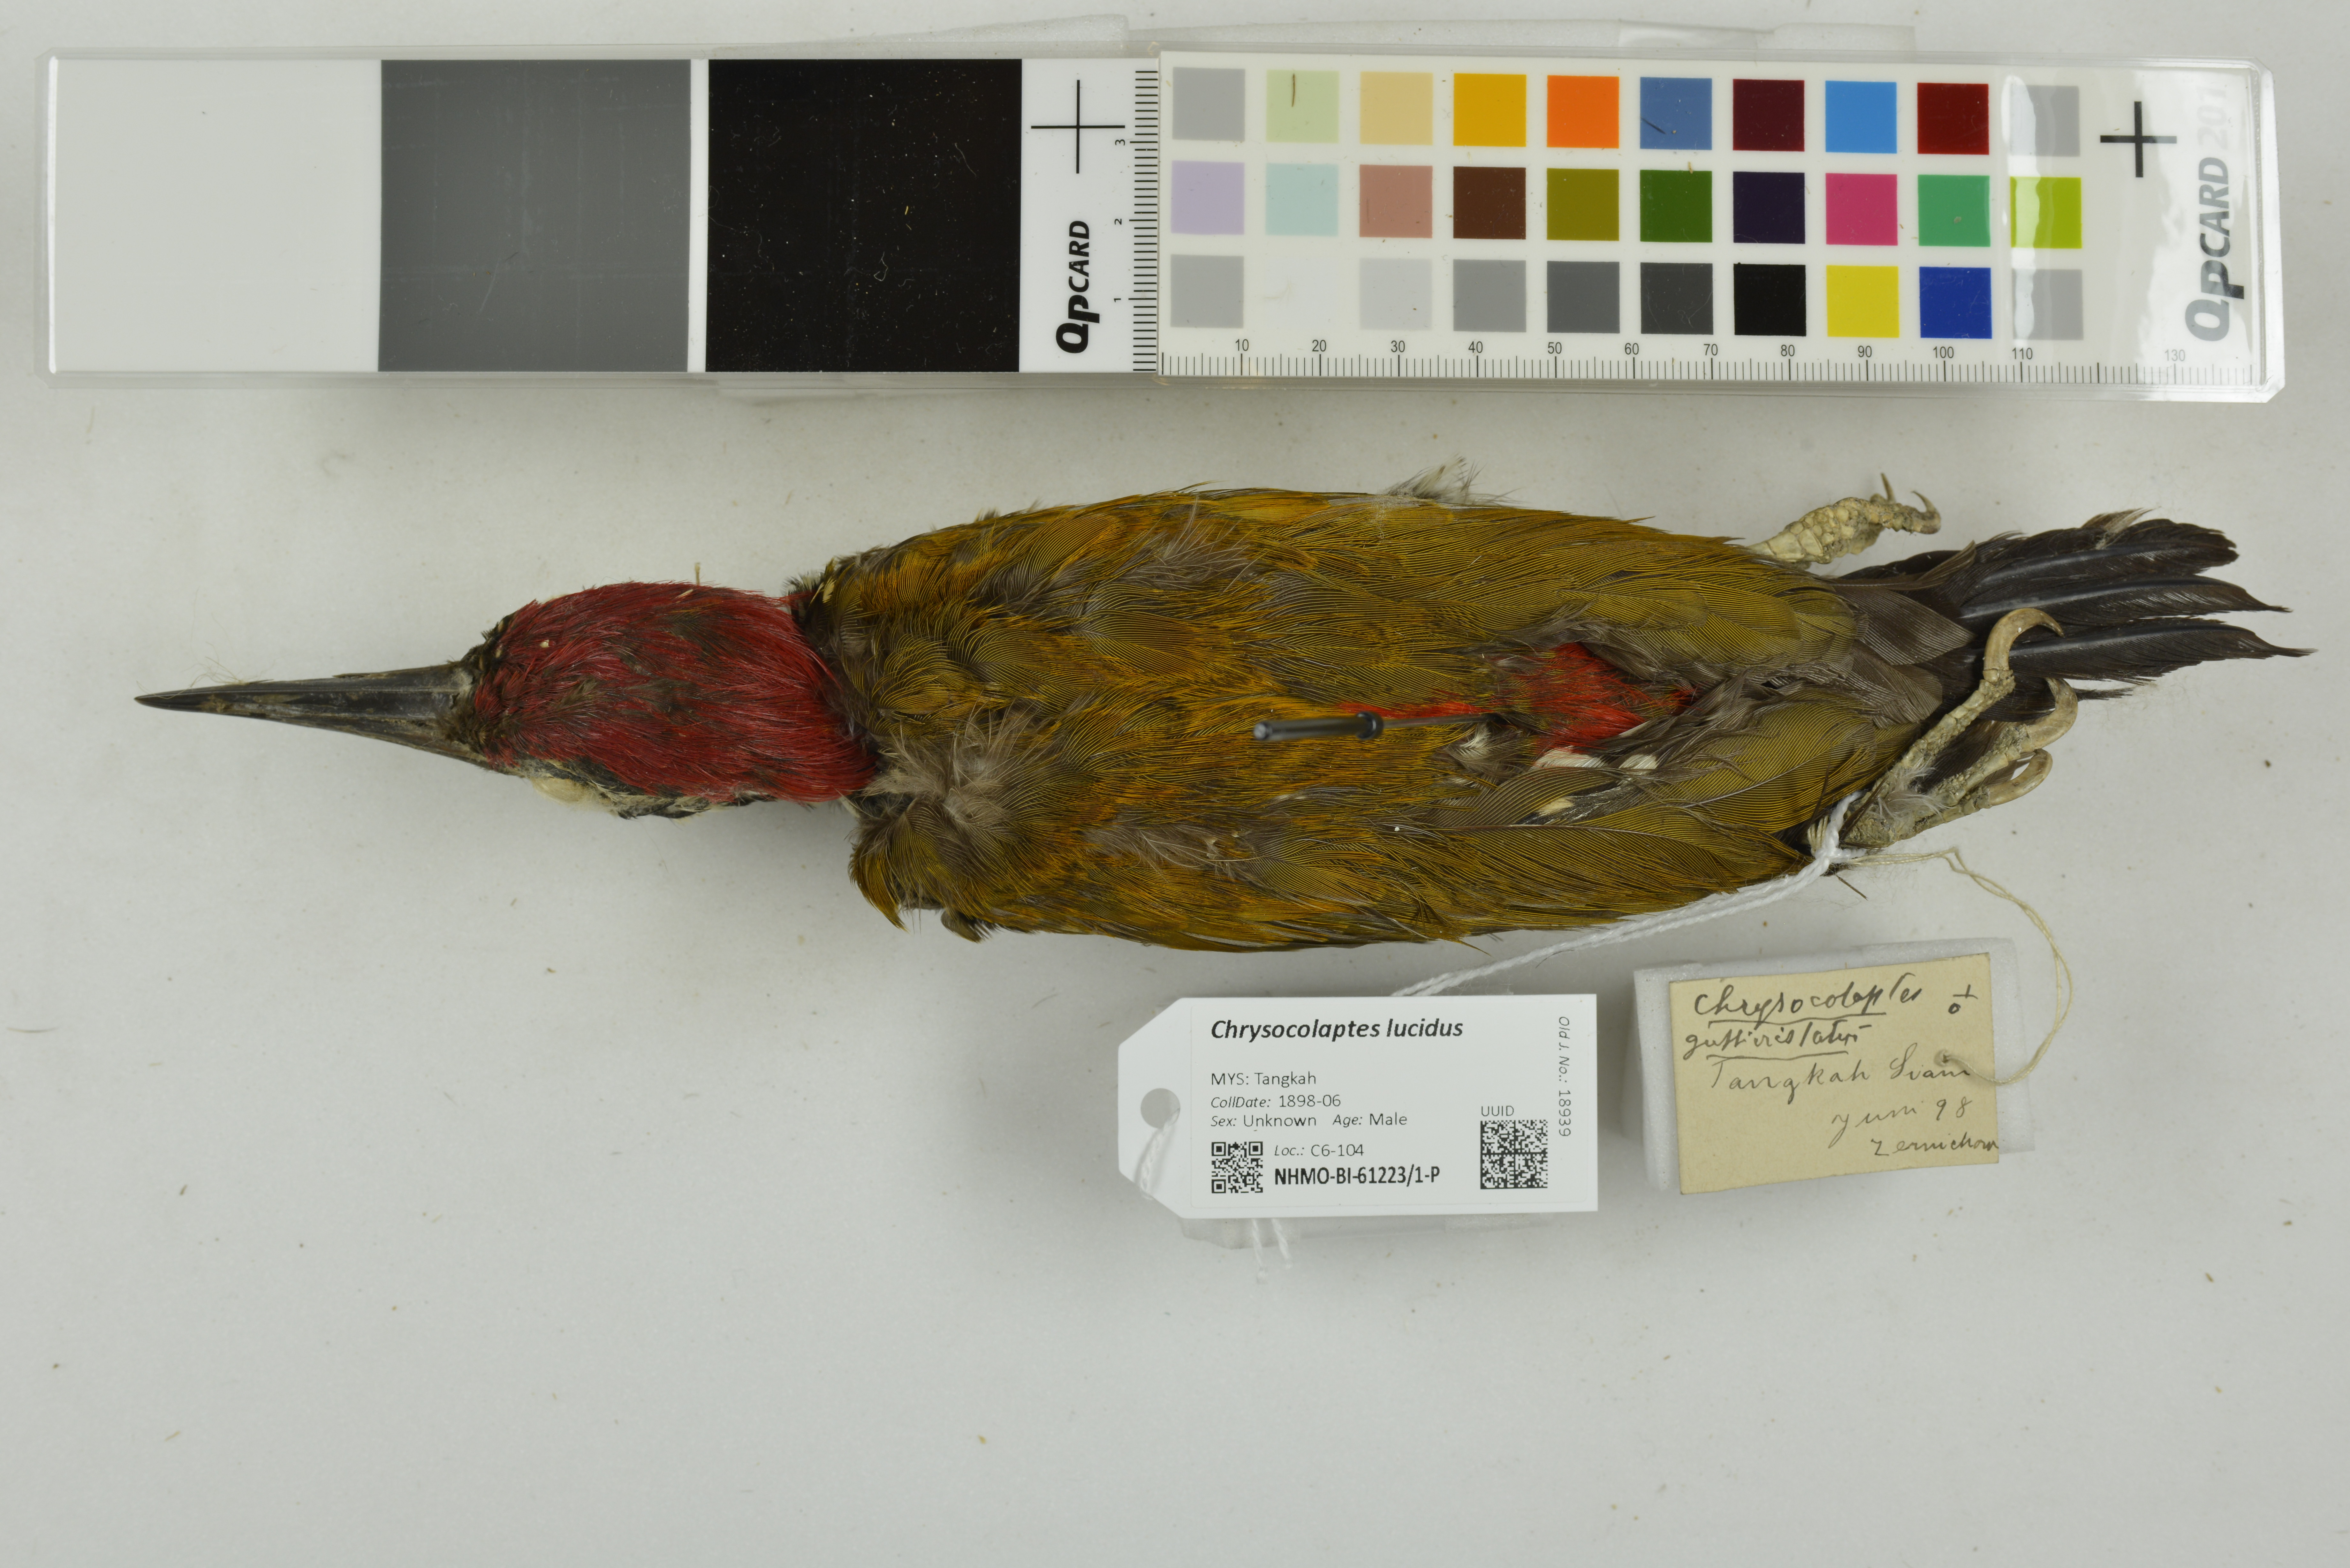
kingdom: Animalia
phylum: Chordata
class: Aves
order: Piciformes
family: Picidae
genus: Chrysocolaptes
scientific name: Chrysocolaptes lucidus
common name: Buff-spotted flameback
